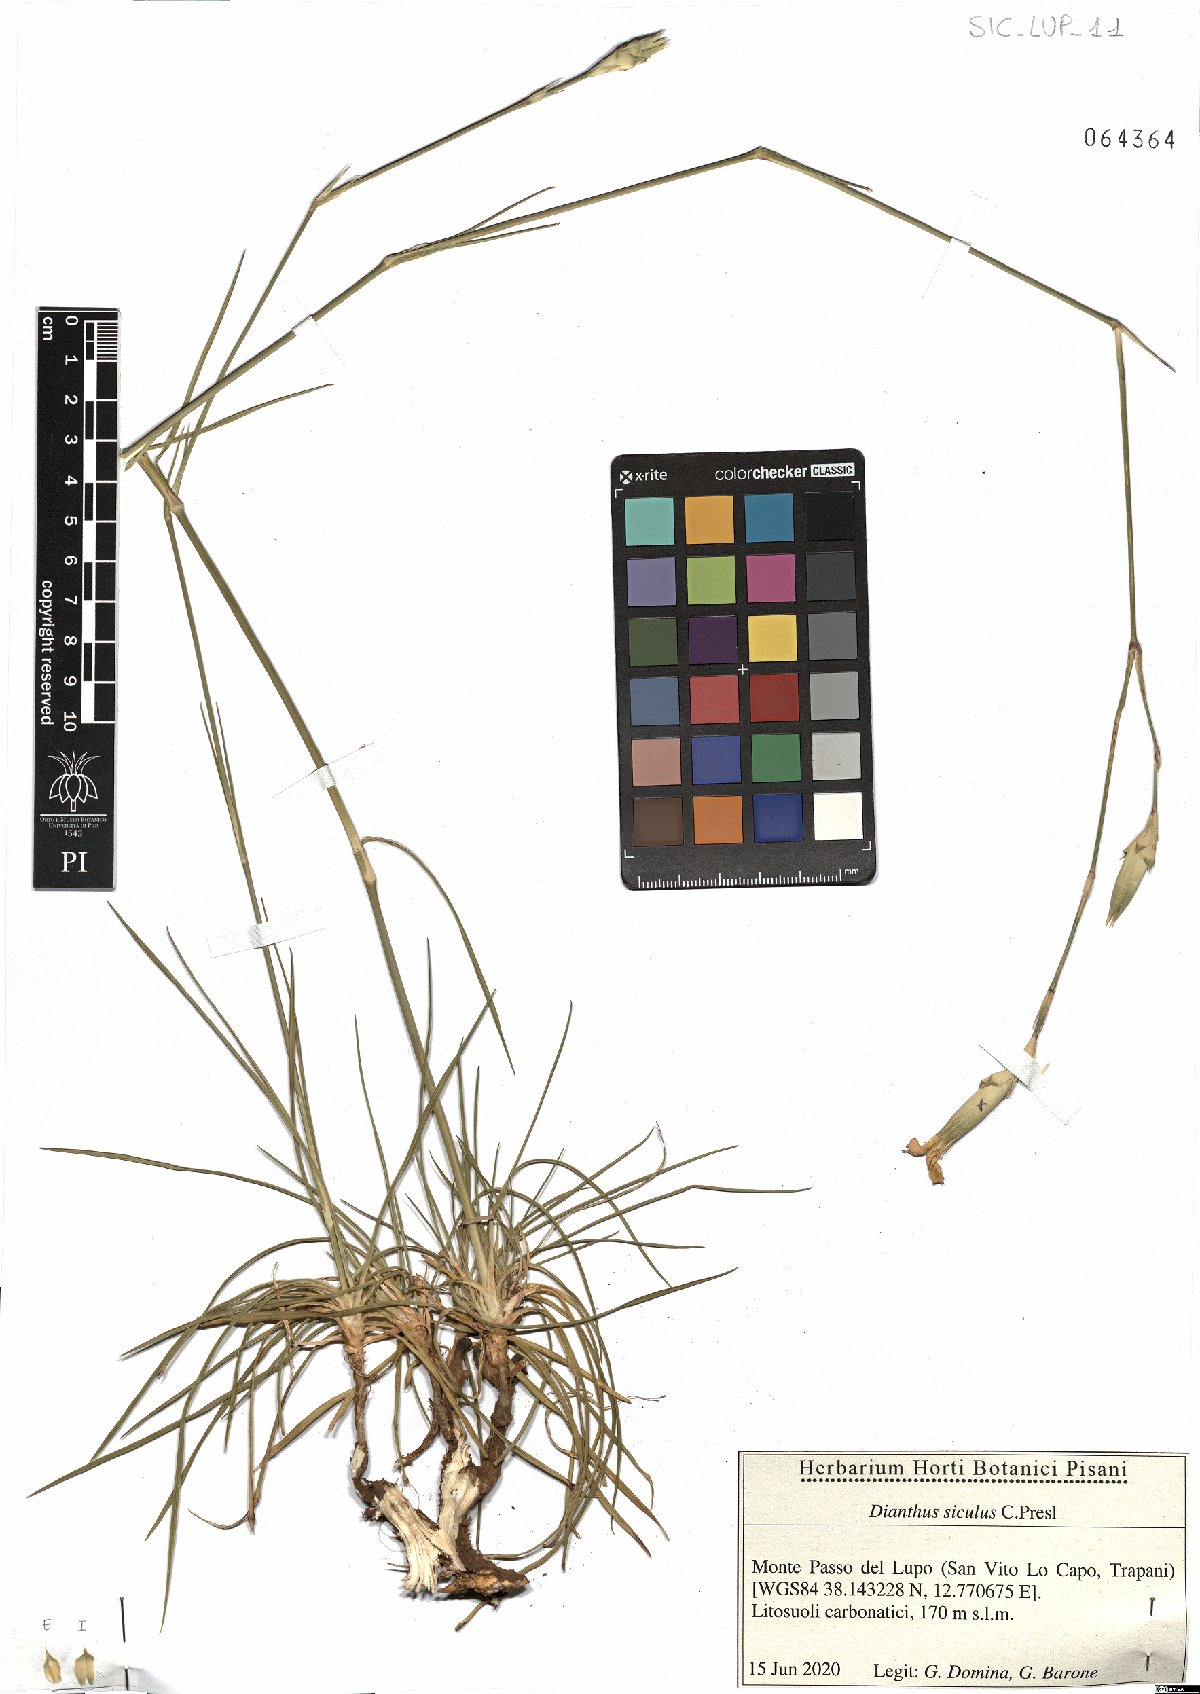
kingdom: Plantae
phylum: Tracheophyta
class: Magnoliopsida
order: Caryophyllales
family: Caryophyllaceae
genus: Dianthus
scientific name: Dianthus siculus
